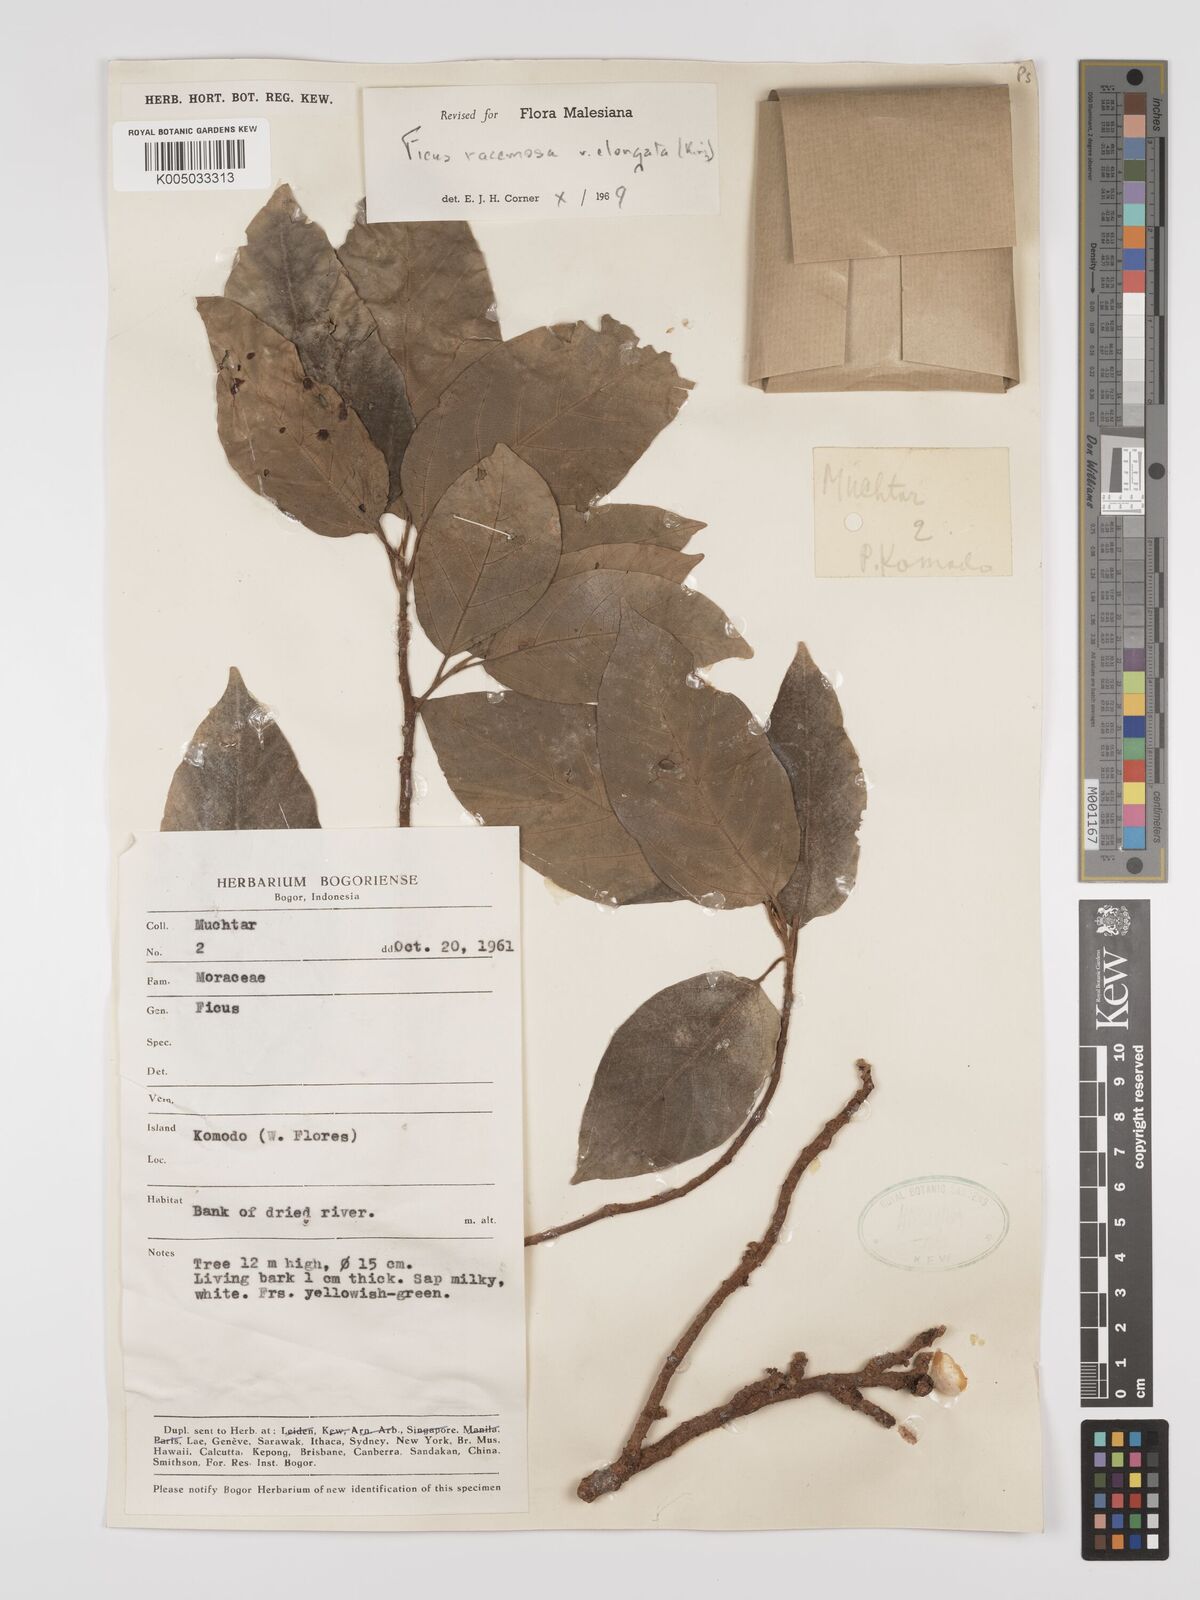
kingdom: Plantae
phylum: Tracheophyta
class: Magnoliopsida
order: Rosales
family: Moraceae
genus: Ficus
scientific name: Ficus
